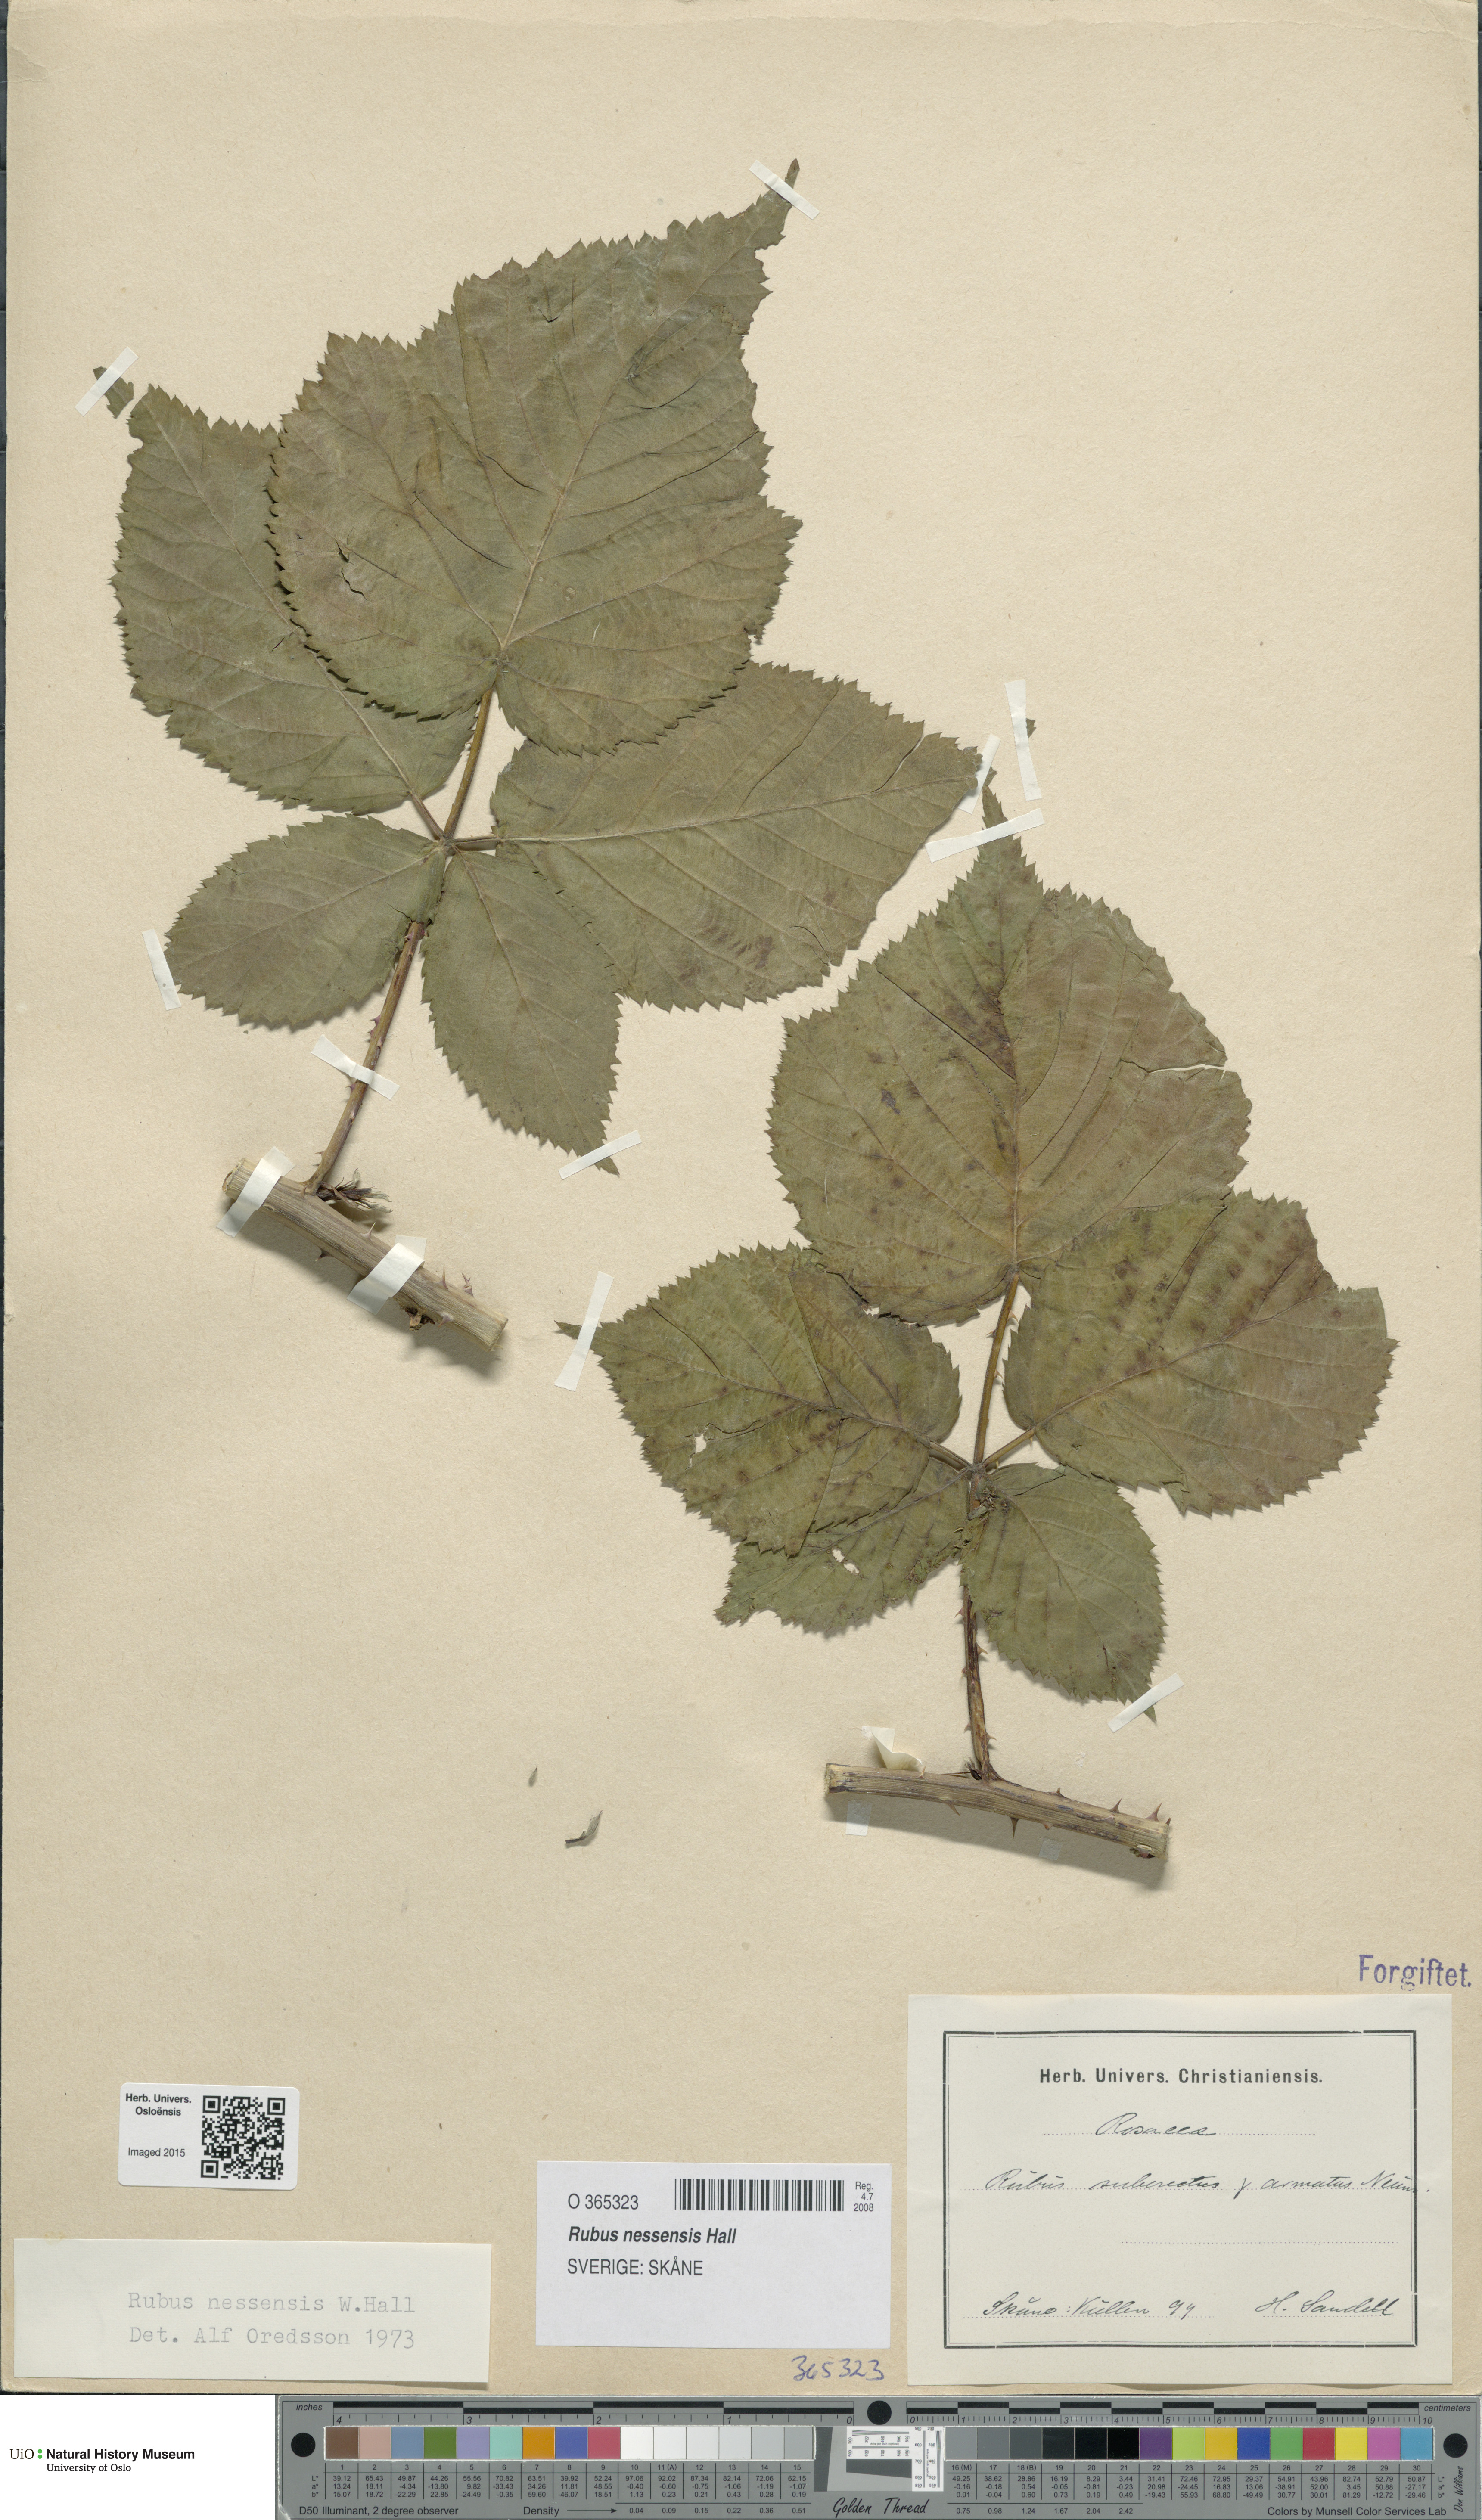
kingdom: Plantae
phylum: Tracheophyta
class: Magnoliopsida
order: Rosales
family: Rosaceae
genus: Rubus
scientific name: Rubus polonicus
